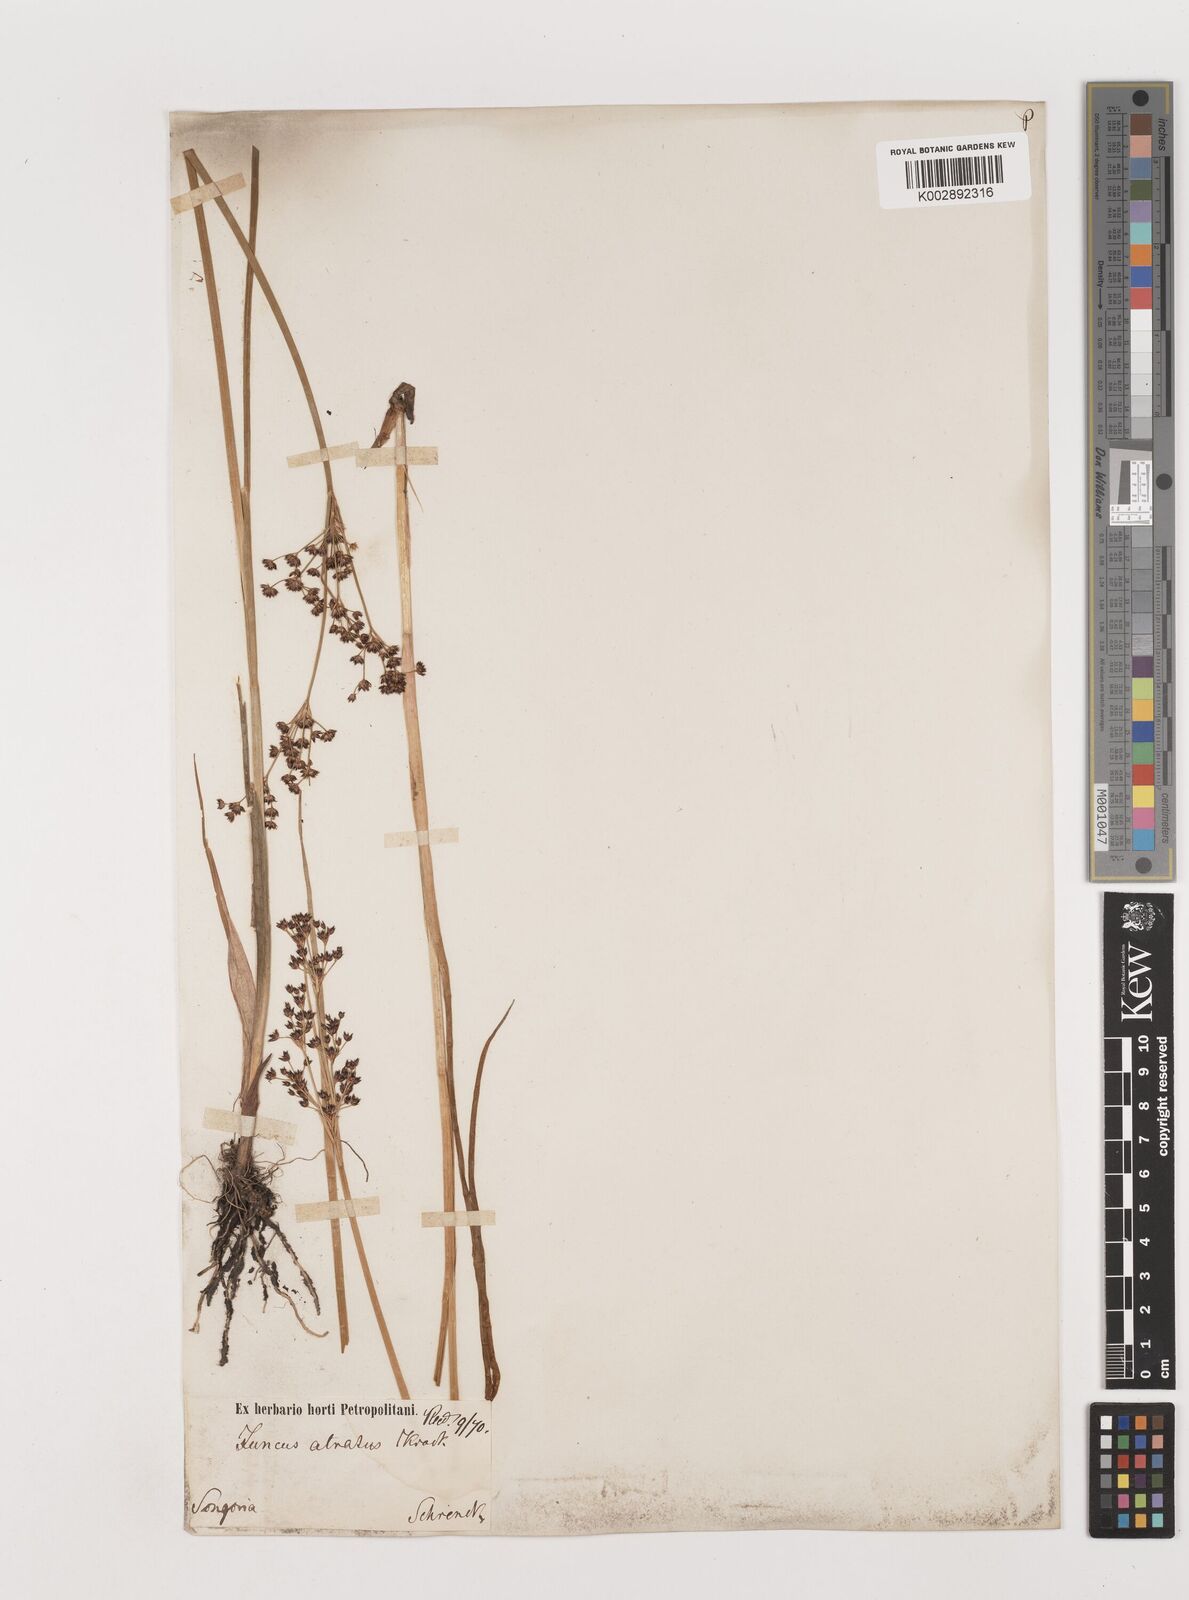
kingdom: Plantae
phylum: Tracheophyta
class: Liliopsida
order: Poales
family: Juncaceae
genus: Juncus
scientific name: Juncus atratus
